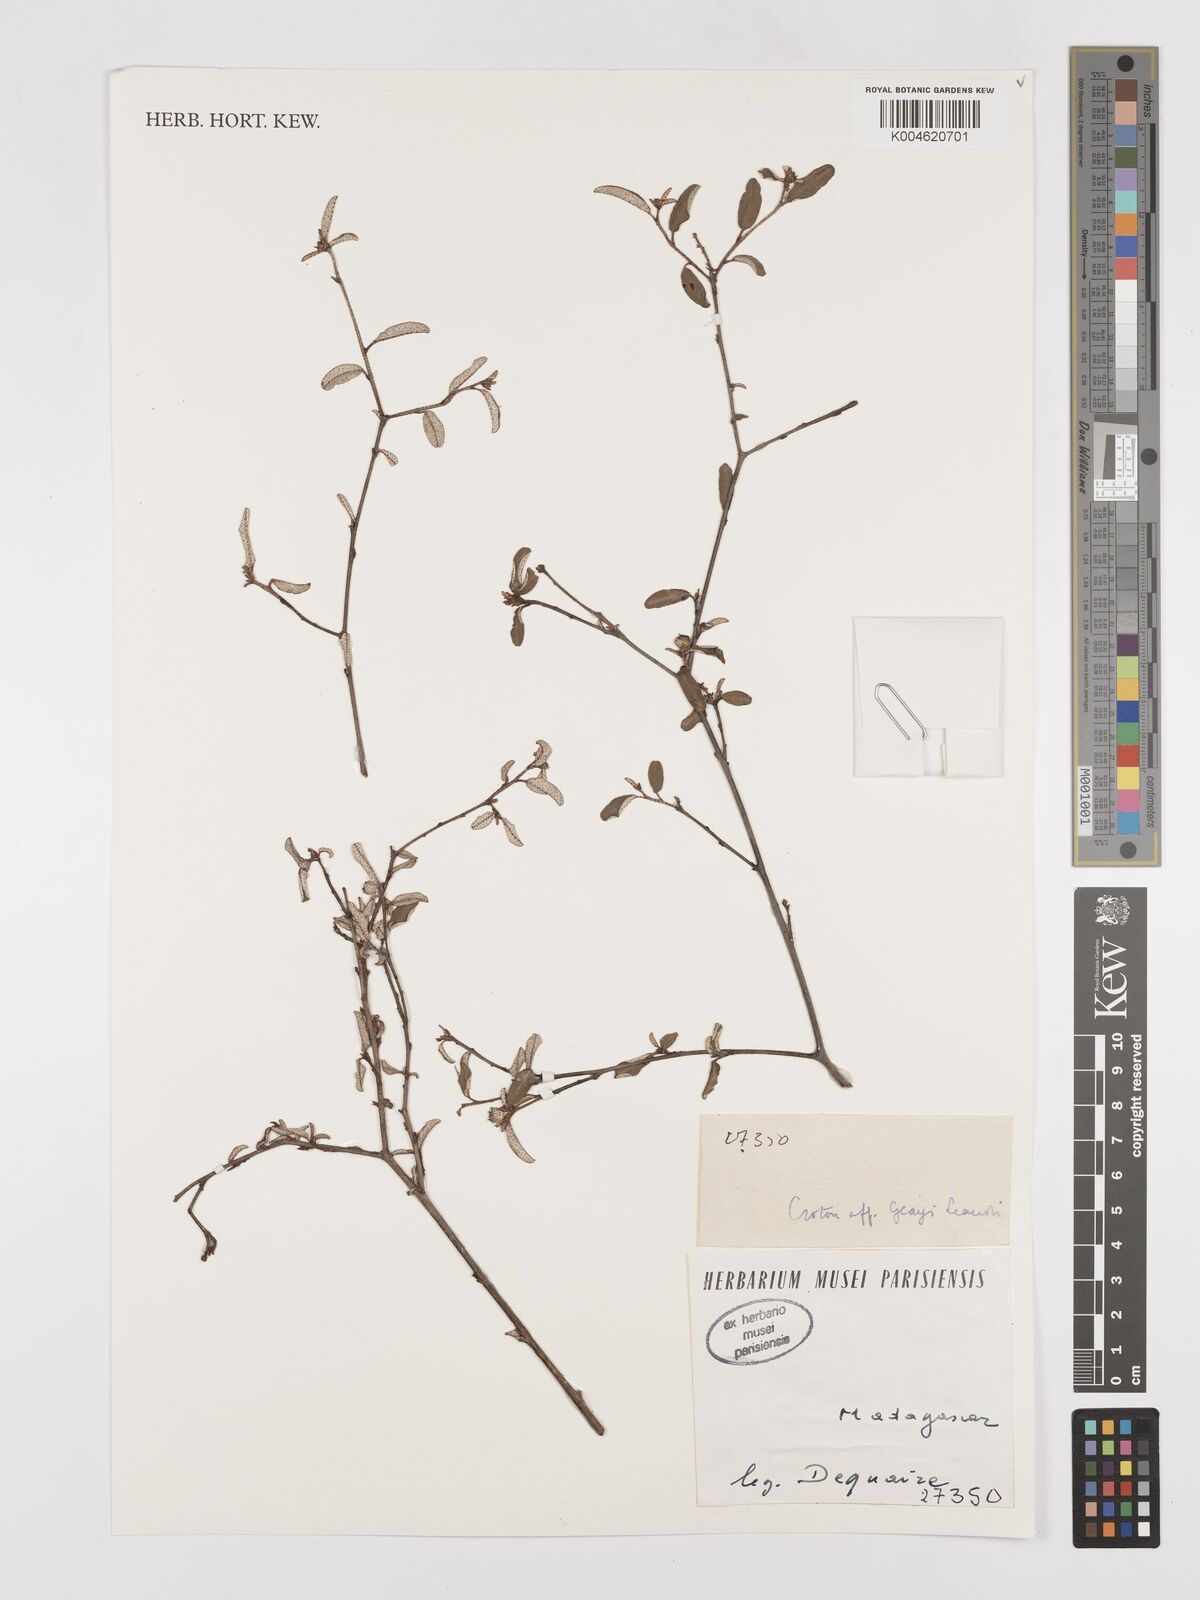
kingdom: Plantae
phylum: Tracheophyta
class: Magnoliopsida
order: Malpighiales
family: Euphorbiaceae
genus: Croton
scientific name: Croton
